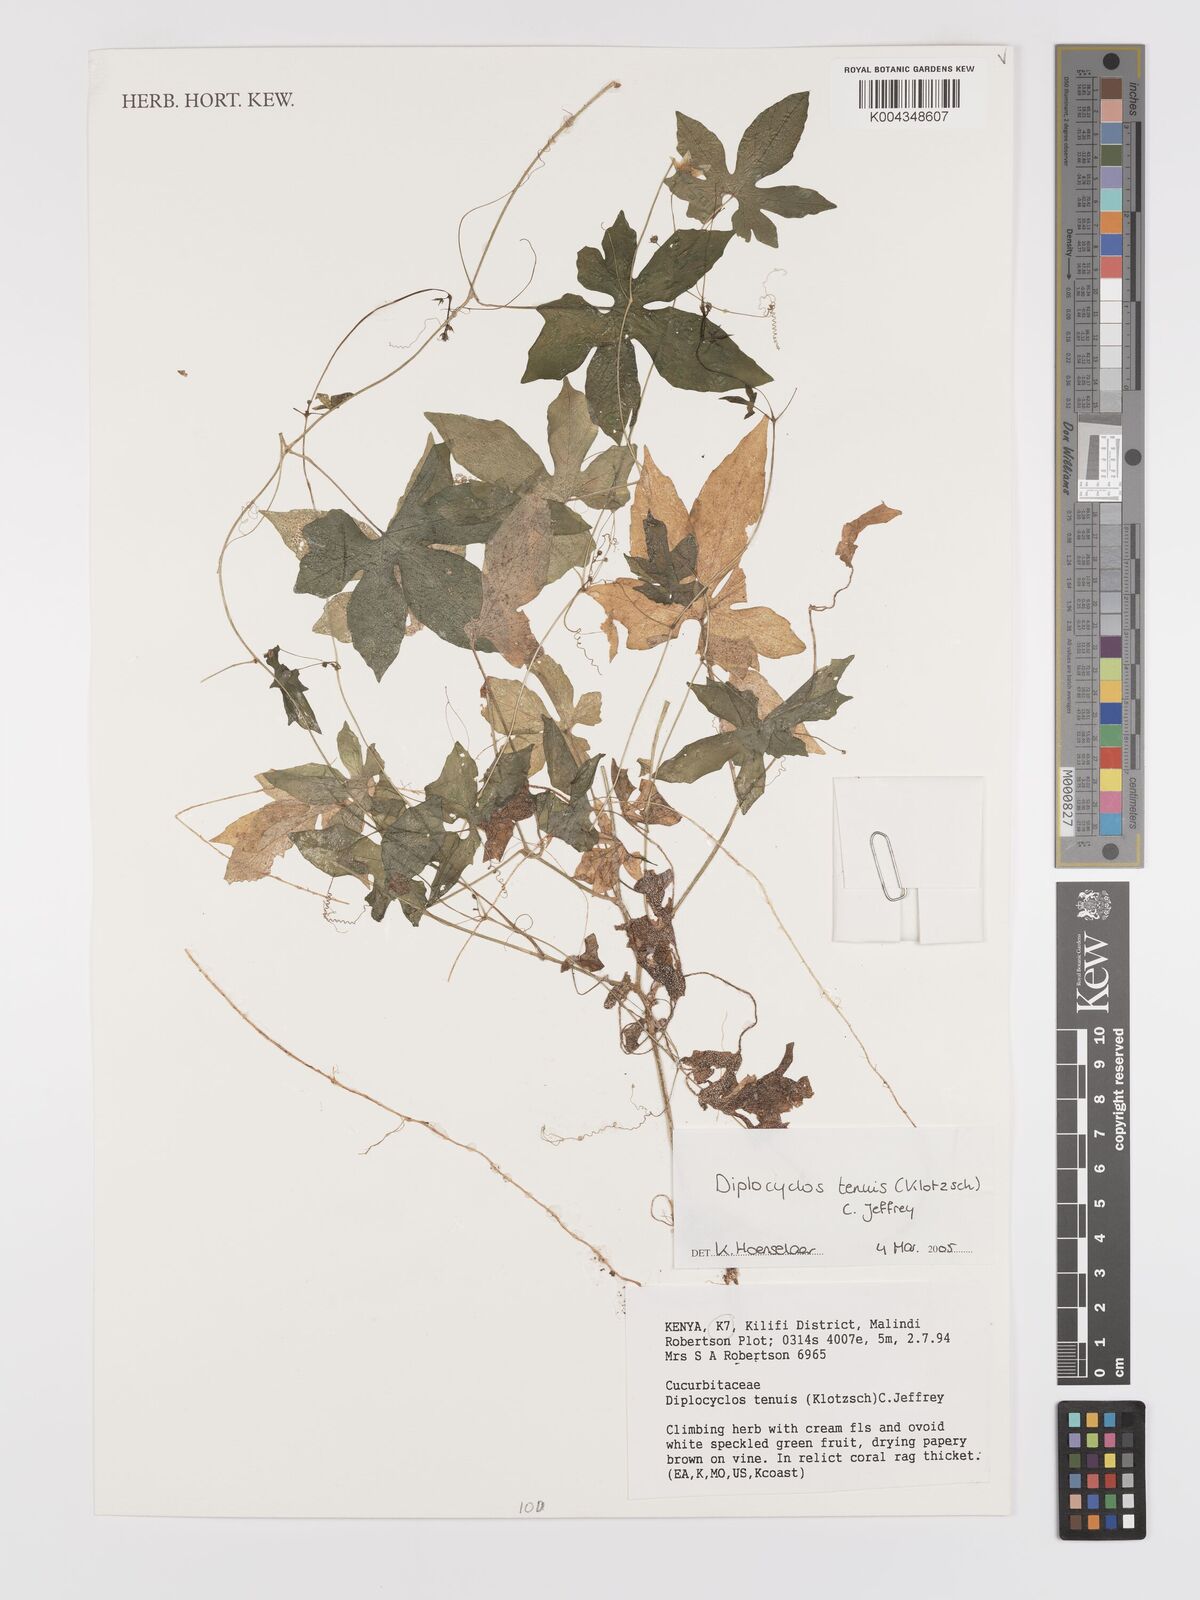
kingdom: Plantae
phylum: Tracheophyta
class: Magnoliopsida
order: Cucurbitales
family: Cucurbitaceae
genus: Diplocyclos
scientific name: Diplocyclos tenuis
